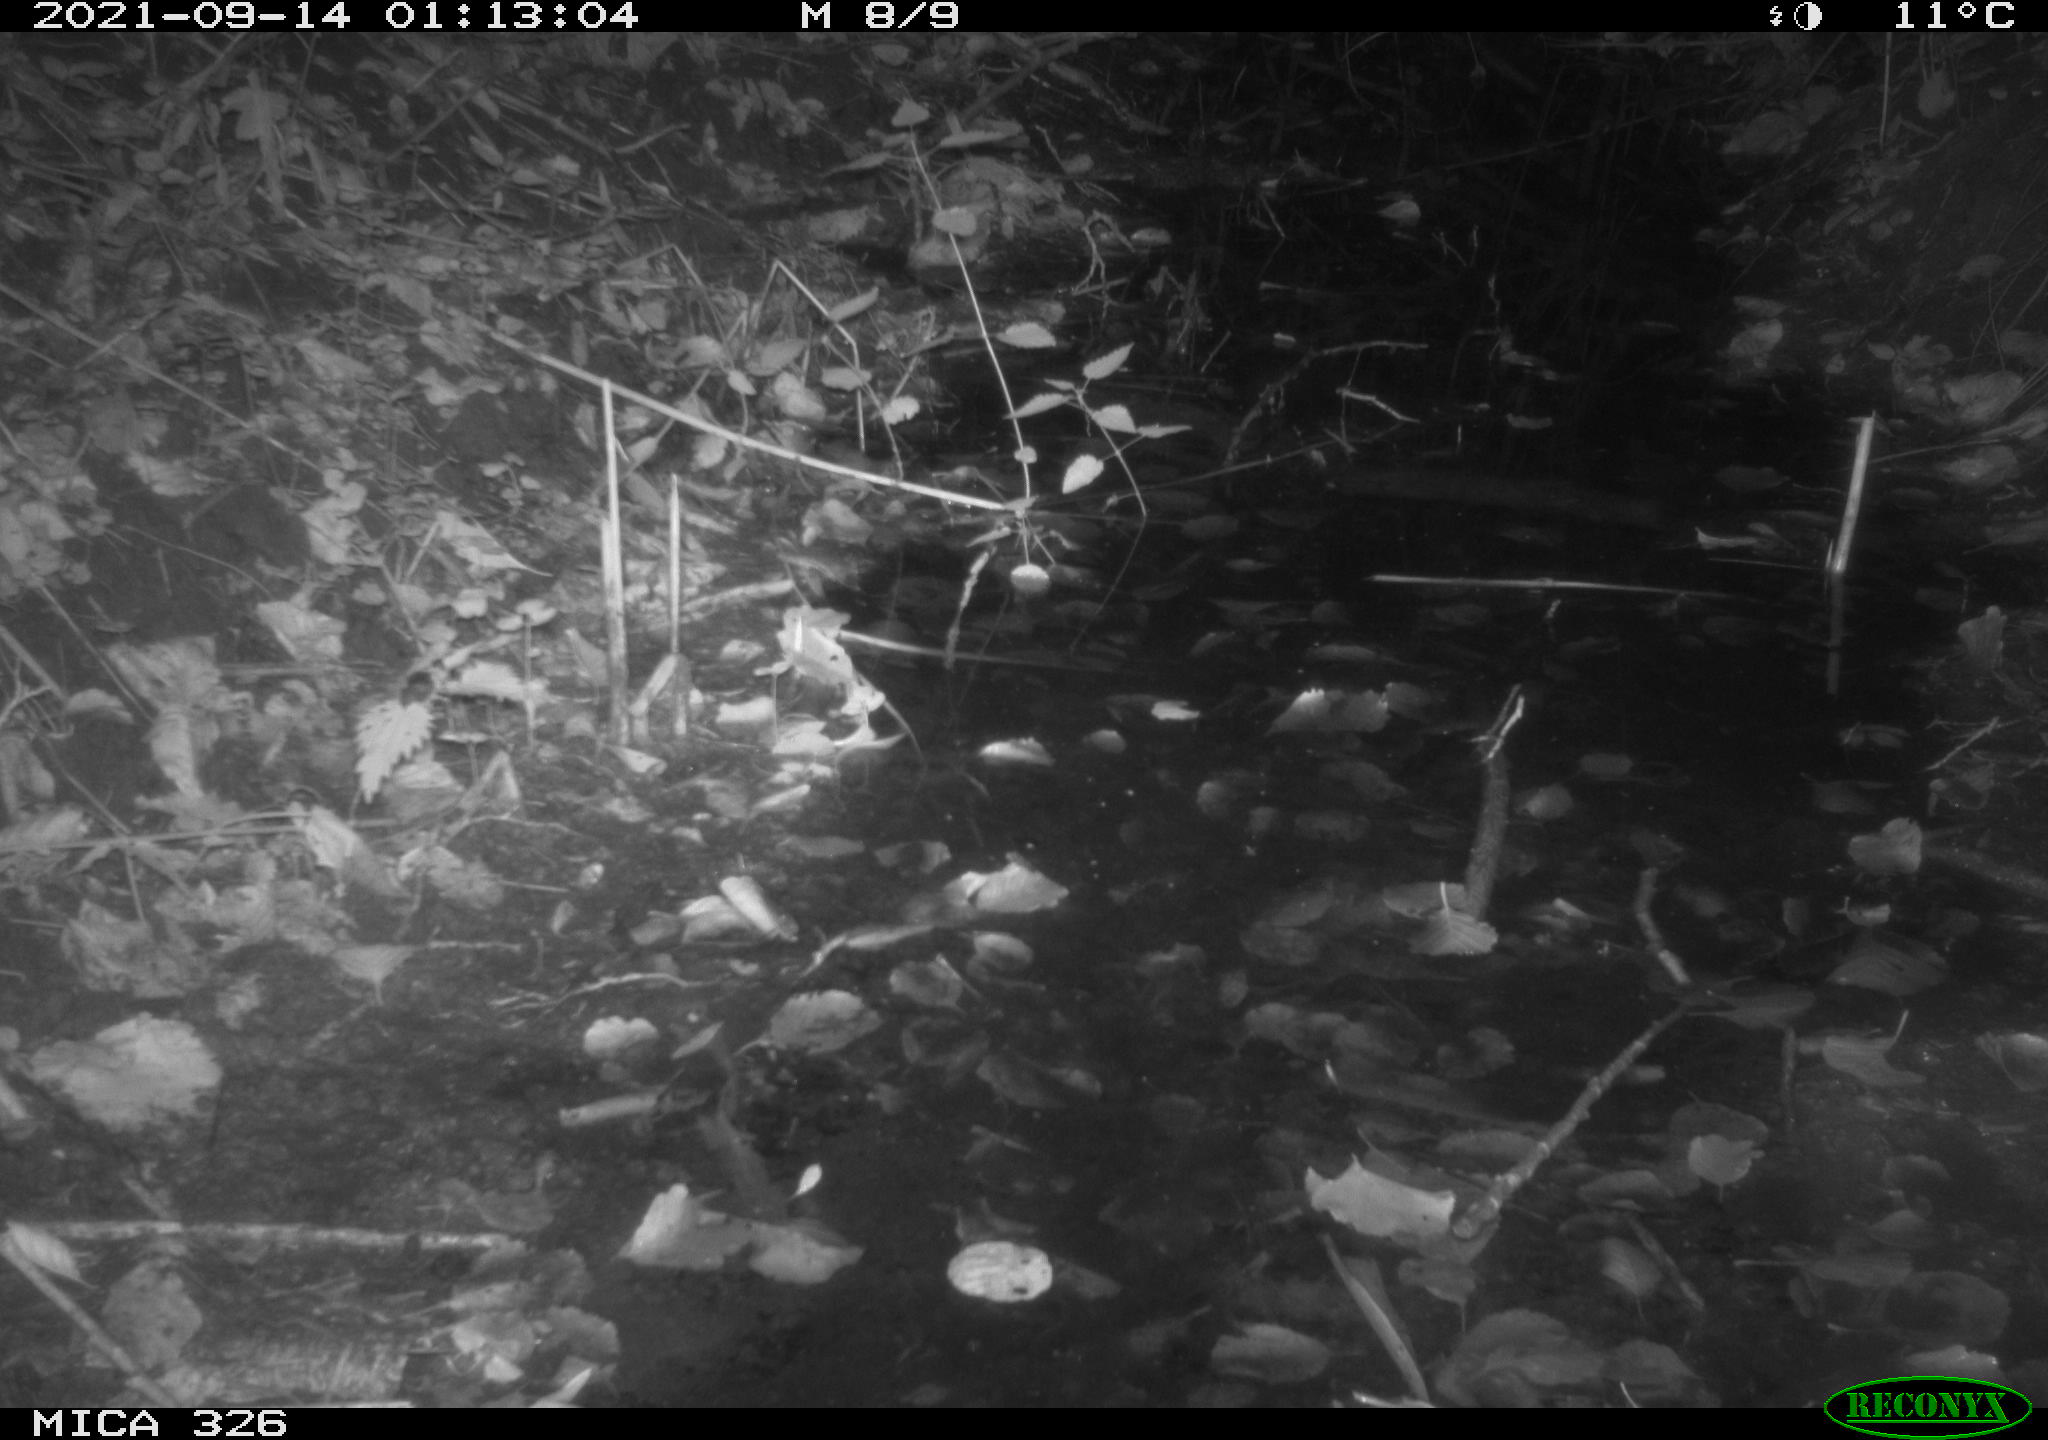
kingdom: Animalia
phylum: Chordata
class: Mammalia
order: Rodentia
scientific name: Rodentia
